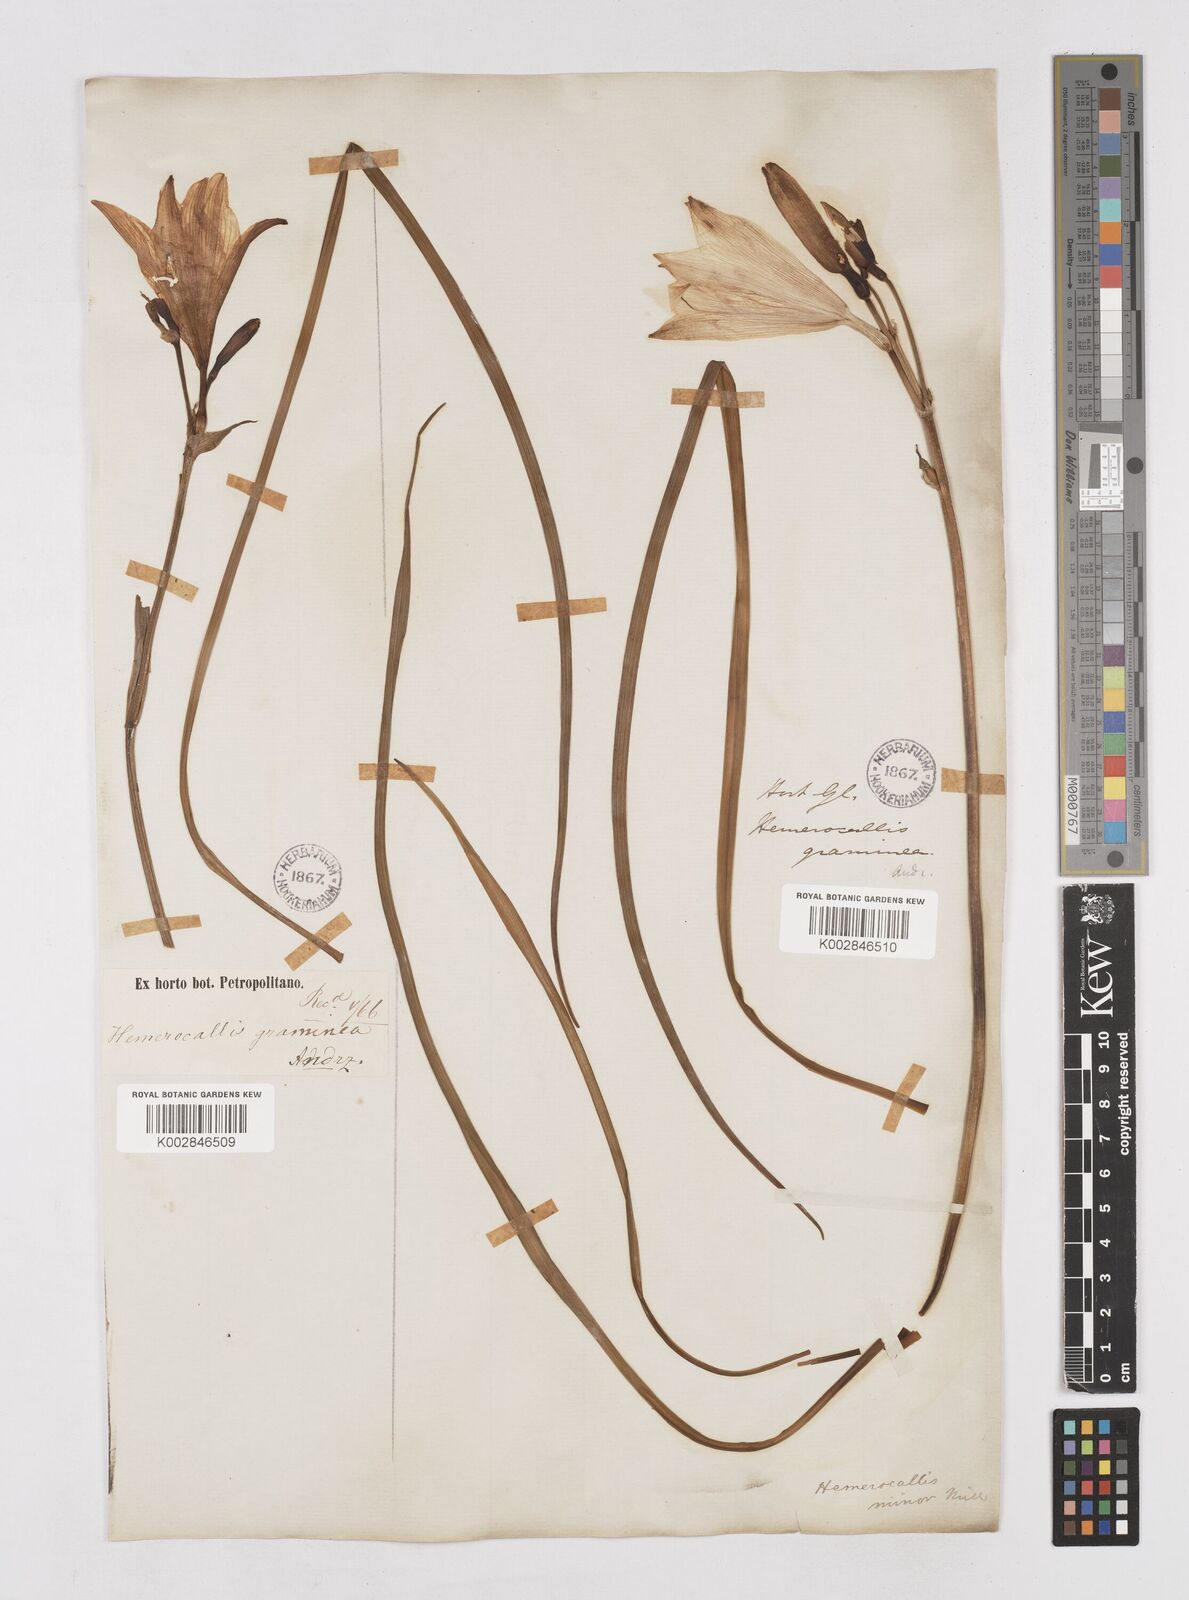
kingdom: Plantae
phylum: Tracheophyta
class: Liliopsida
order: Asparagales
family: Asphodelaceae
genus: Hemerocallis
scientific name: Hemerocallis minor
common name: Small daylily
